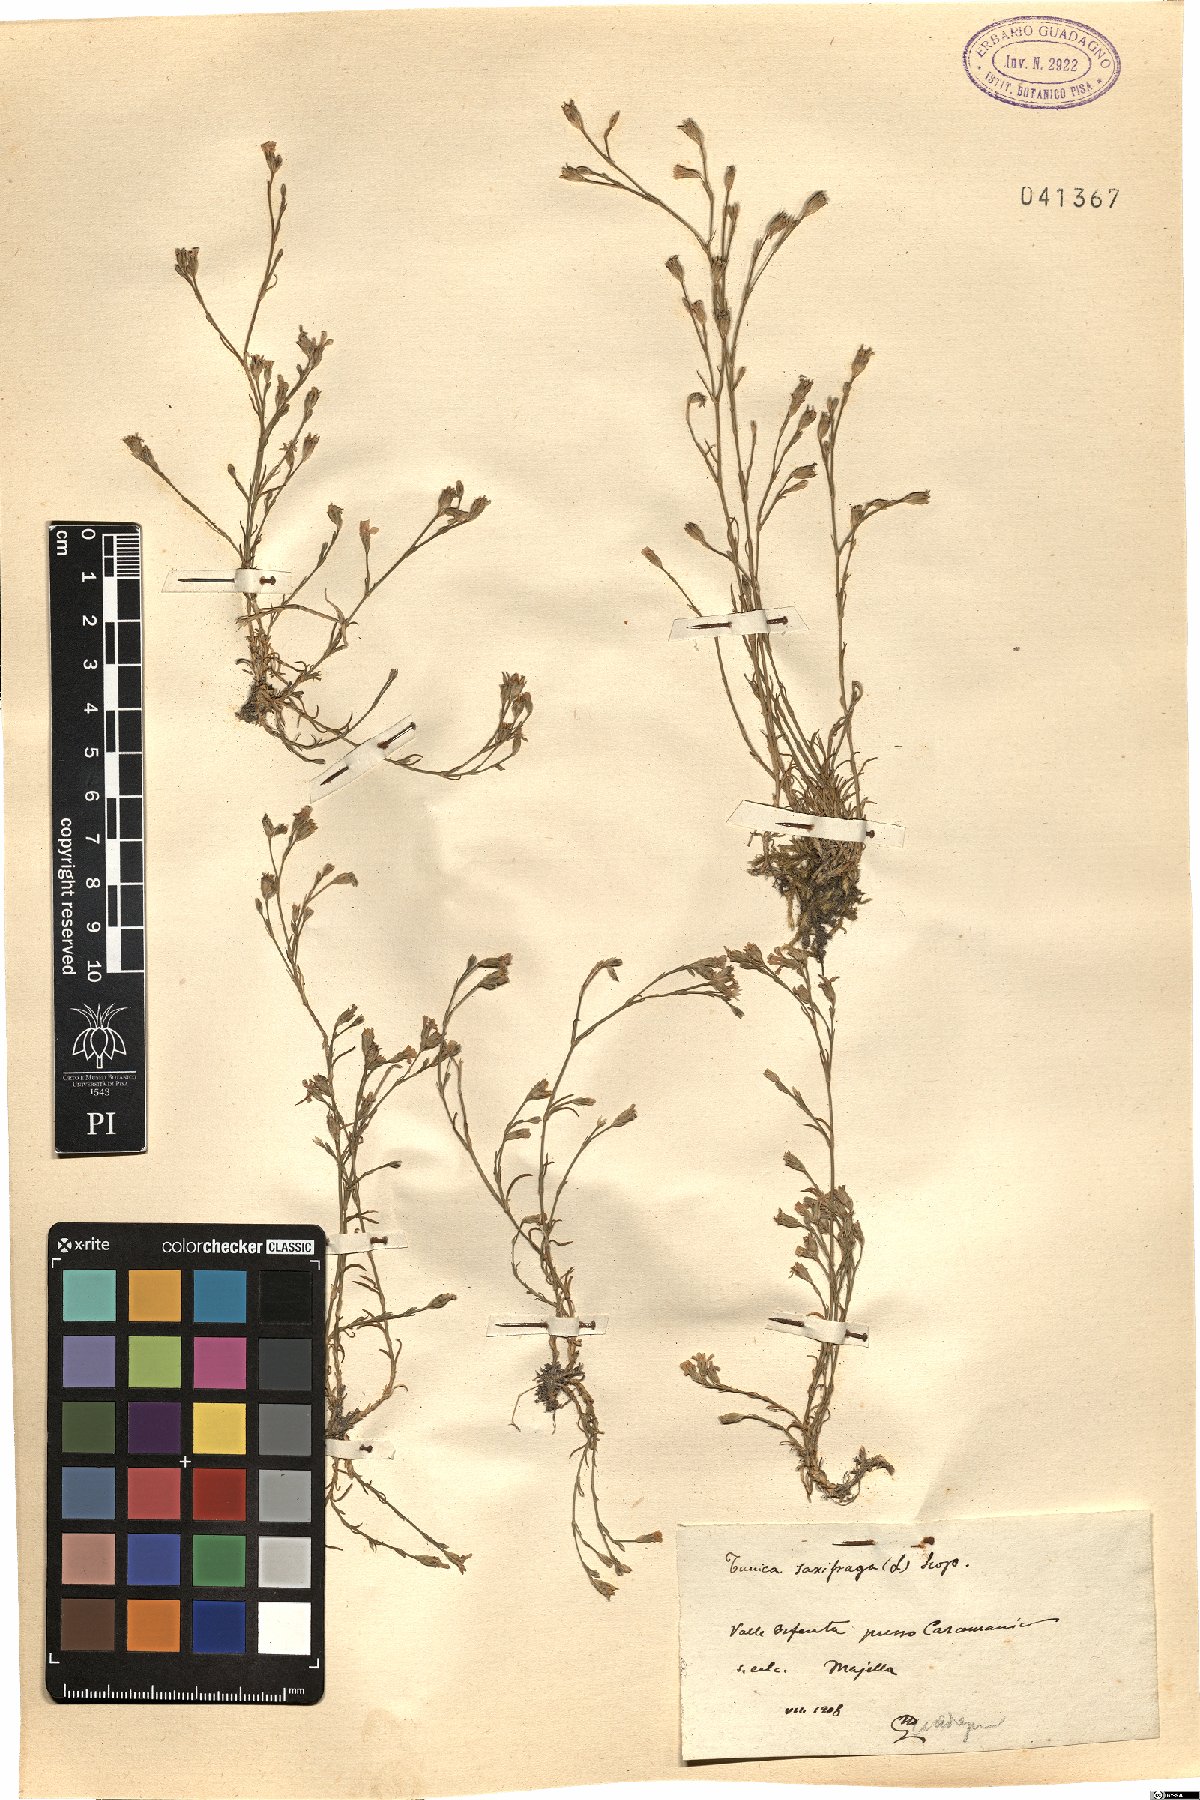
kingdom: Plantae
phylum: Tracheophyta
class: Magnoliopsida
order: Caryophyllales
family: Caryophyllaceae
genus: Petrorhagia
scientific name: Petrorhagia saxifraga
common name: Tunicflower
